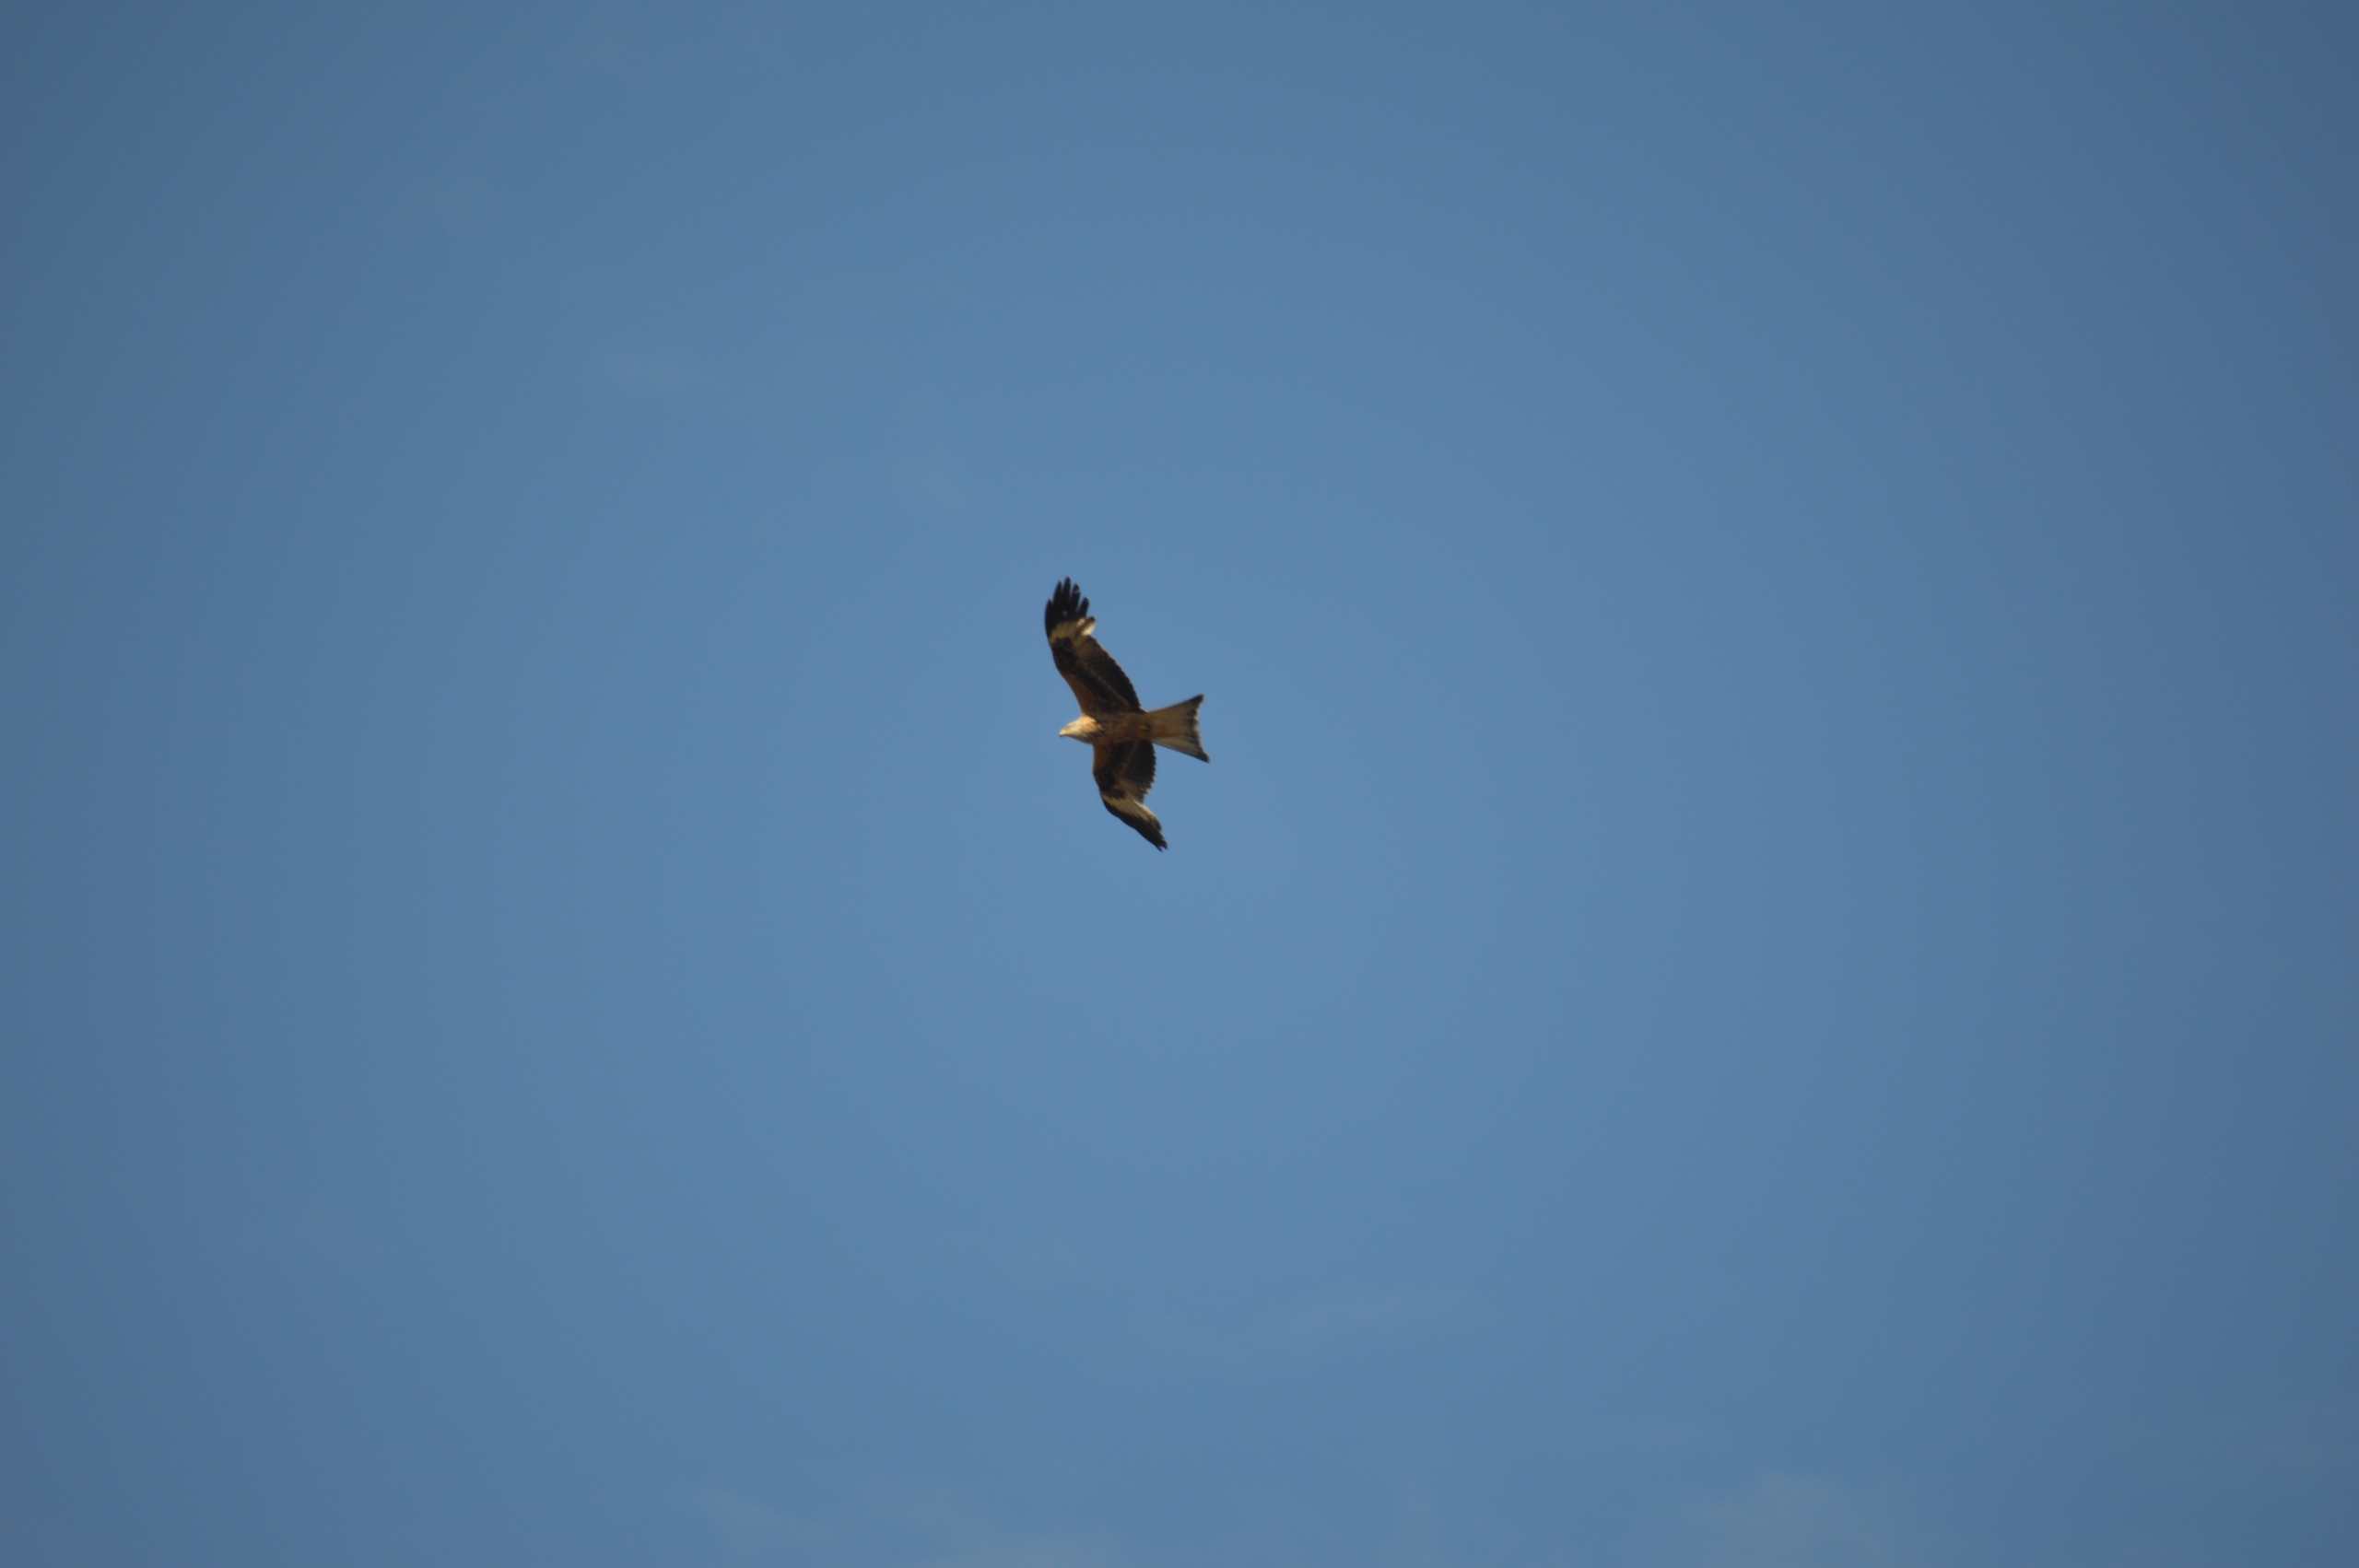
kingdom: Animalia
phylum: Chordata
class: Aves
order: Accipitriformes
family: Accipitridae
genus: Milvus
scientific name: Milvus milvus
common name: Rød glente
